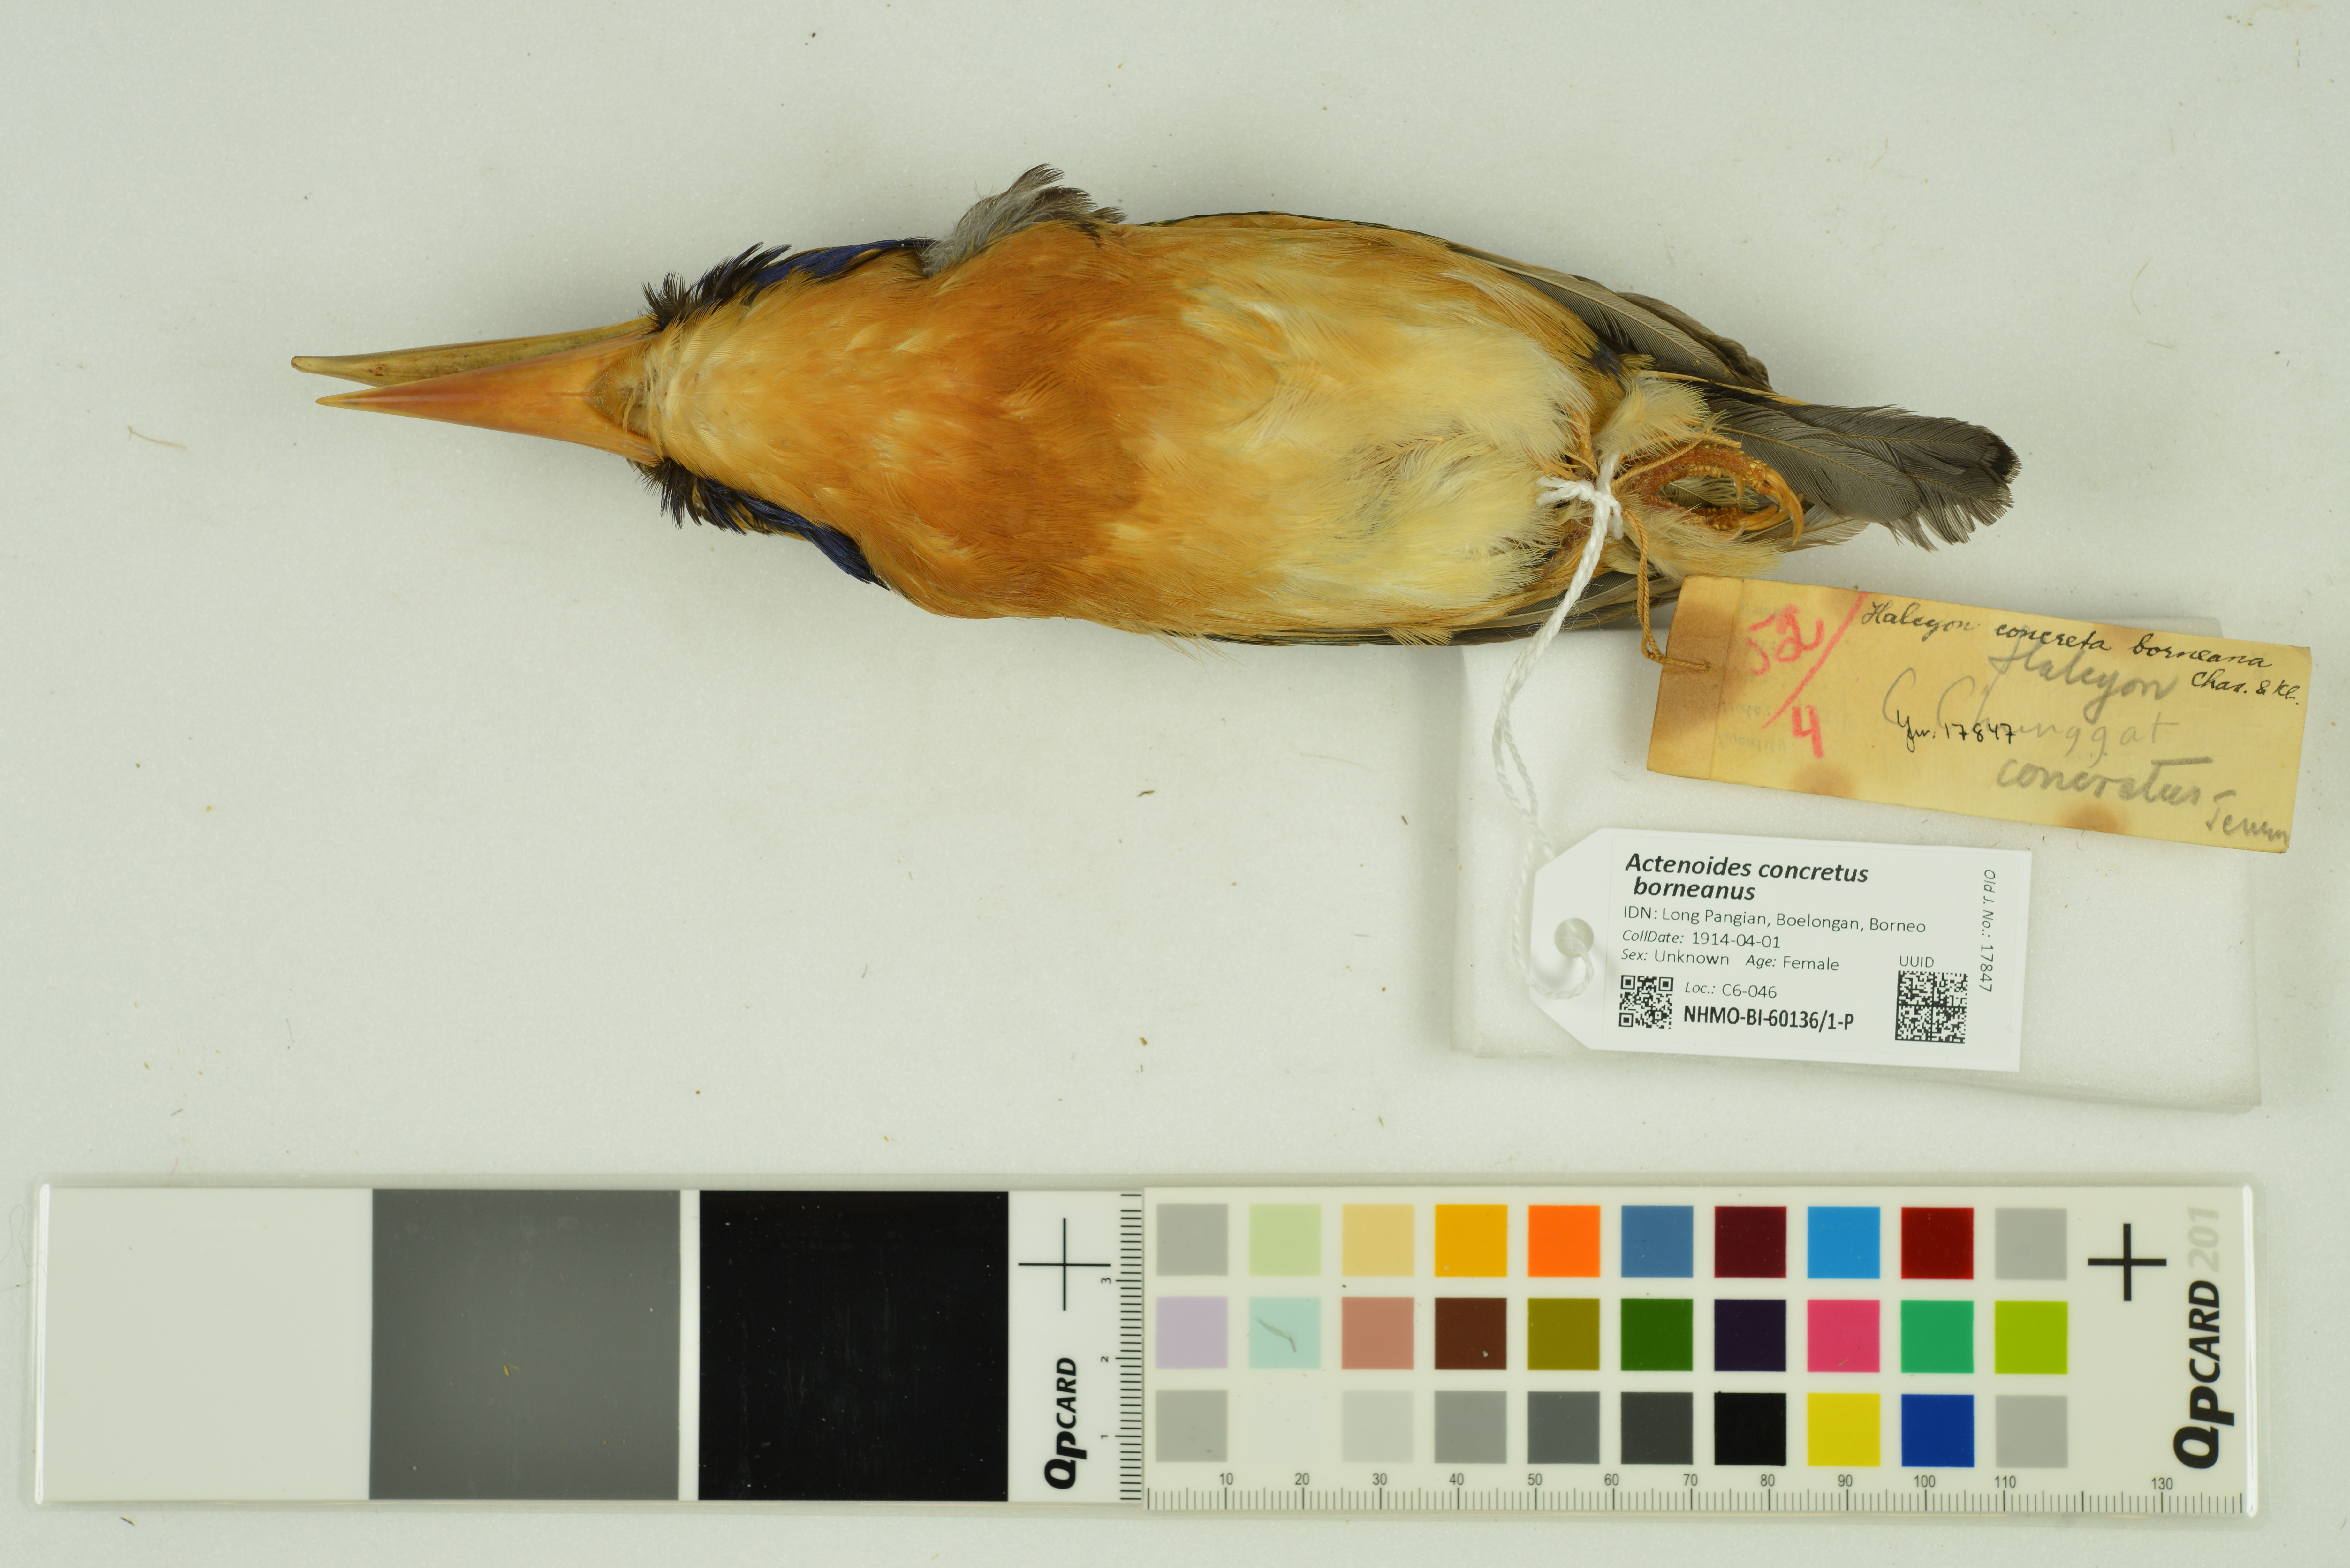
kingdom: Animalia
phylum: Chordata
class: Aves
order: Coraciiformes
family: Alcedinidae
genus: Actenoides
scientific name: Actenoides concretus
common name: Rufous-collared kingfisher
